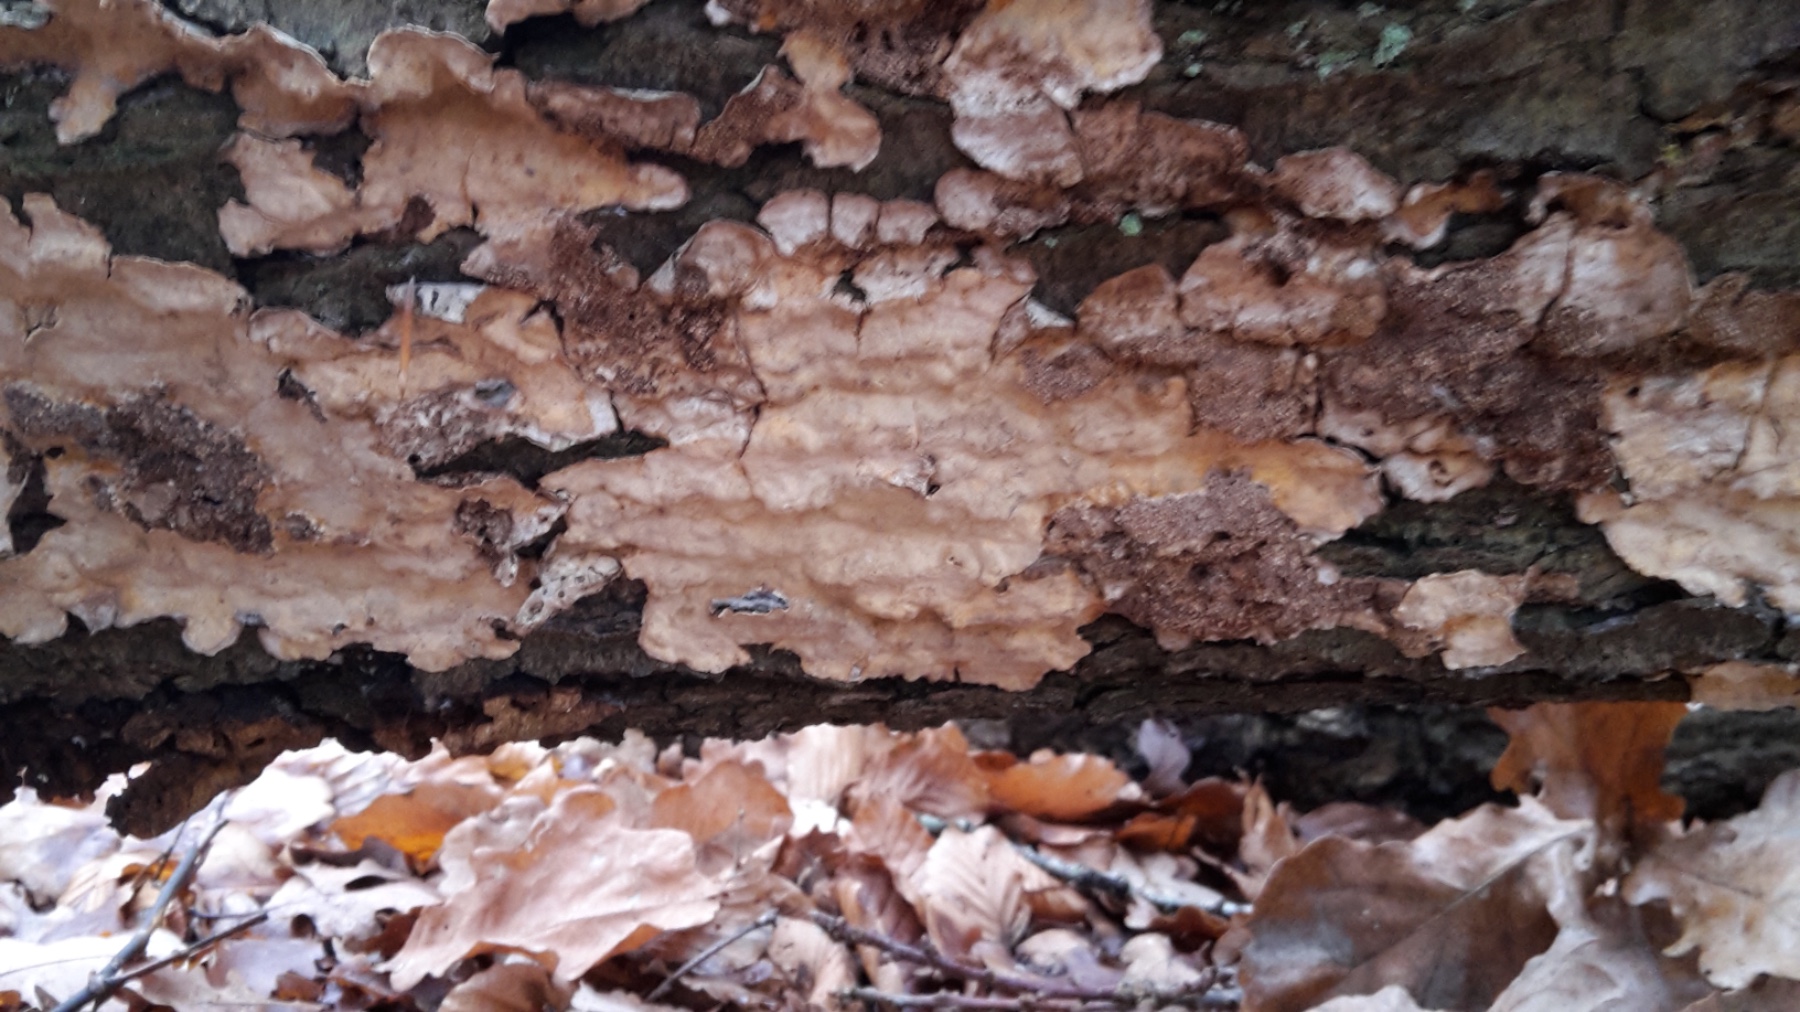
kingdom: Fungi
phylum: Basidiomycota
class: Agaricomycetes
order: Russulales
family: Stereaceae
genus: Stereum
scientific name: Stereum rugosum
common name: rynket lædersvamp
